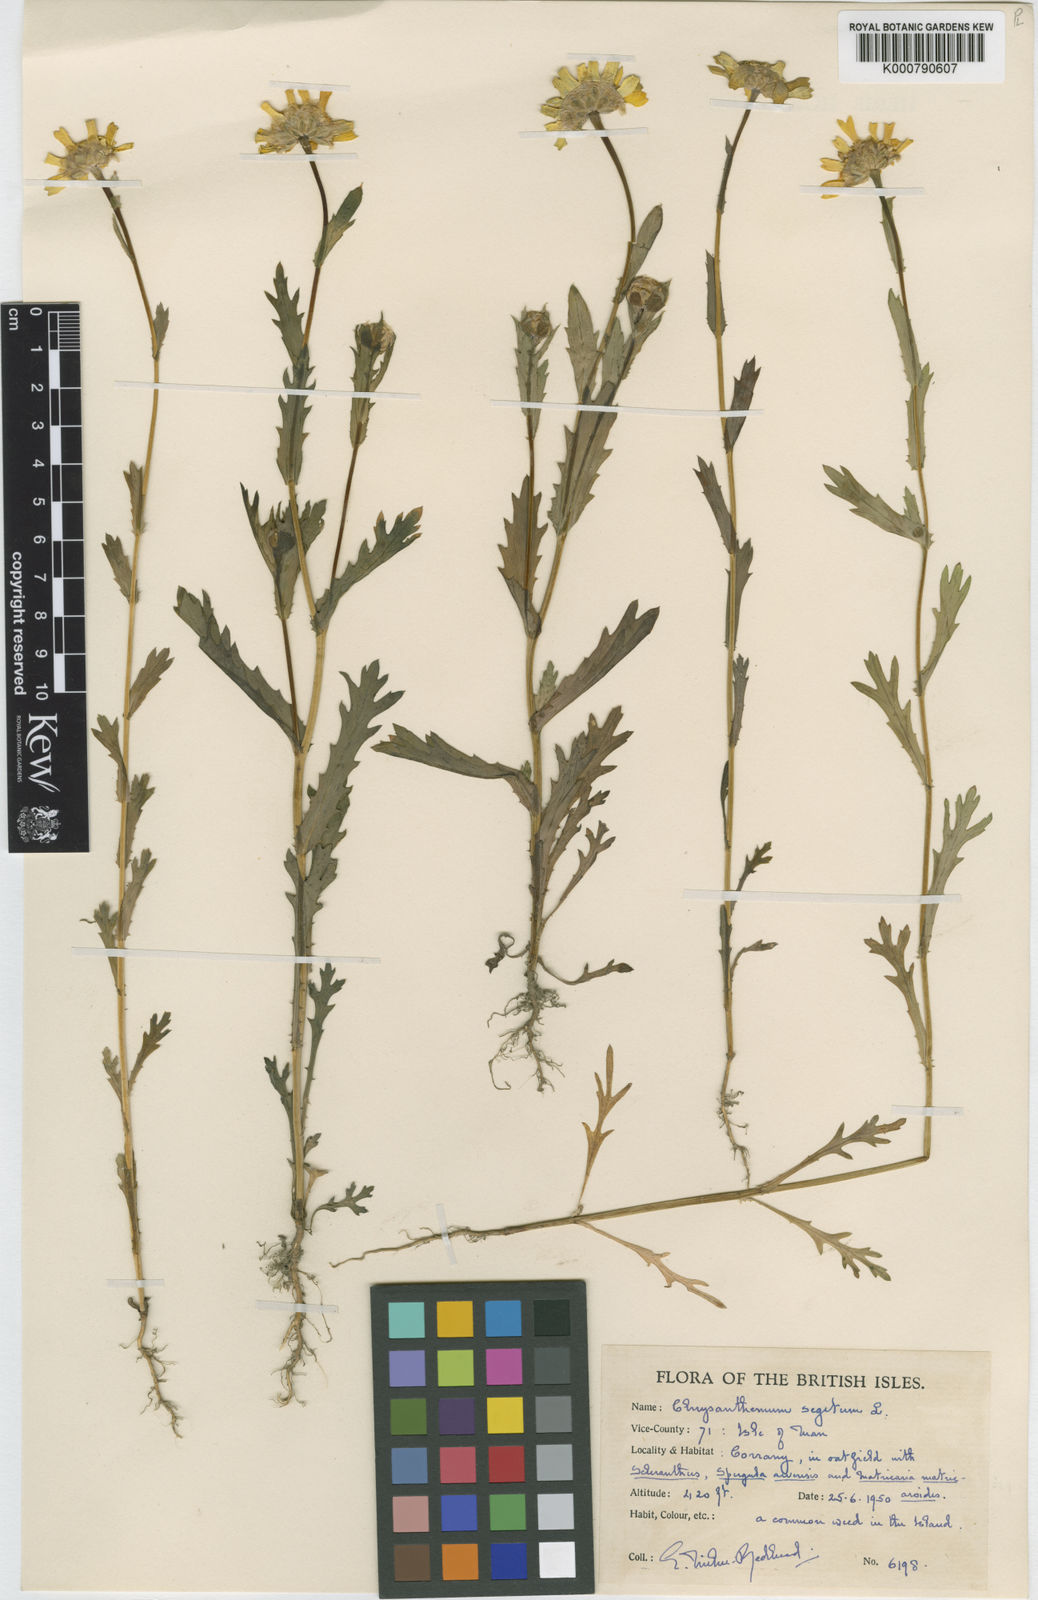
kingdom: Plantae
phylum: Tracheophyta
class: Magnoliopsida
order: Asterales
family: Asteraceae
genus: Glebionis
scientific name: Glebionis
